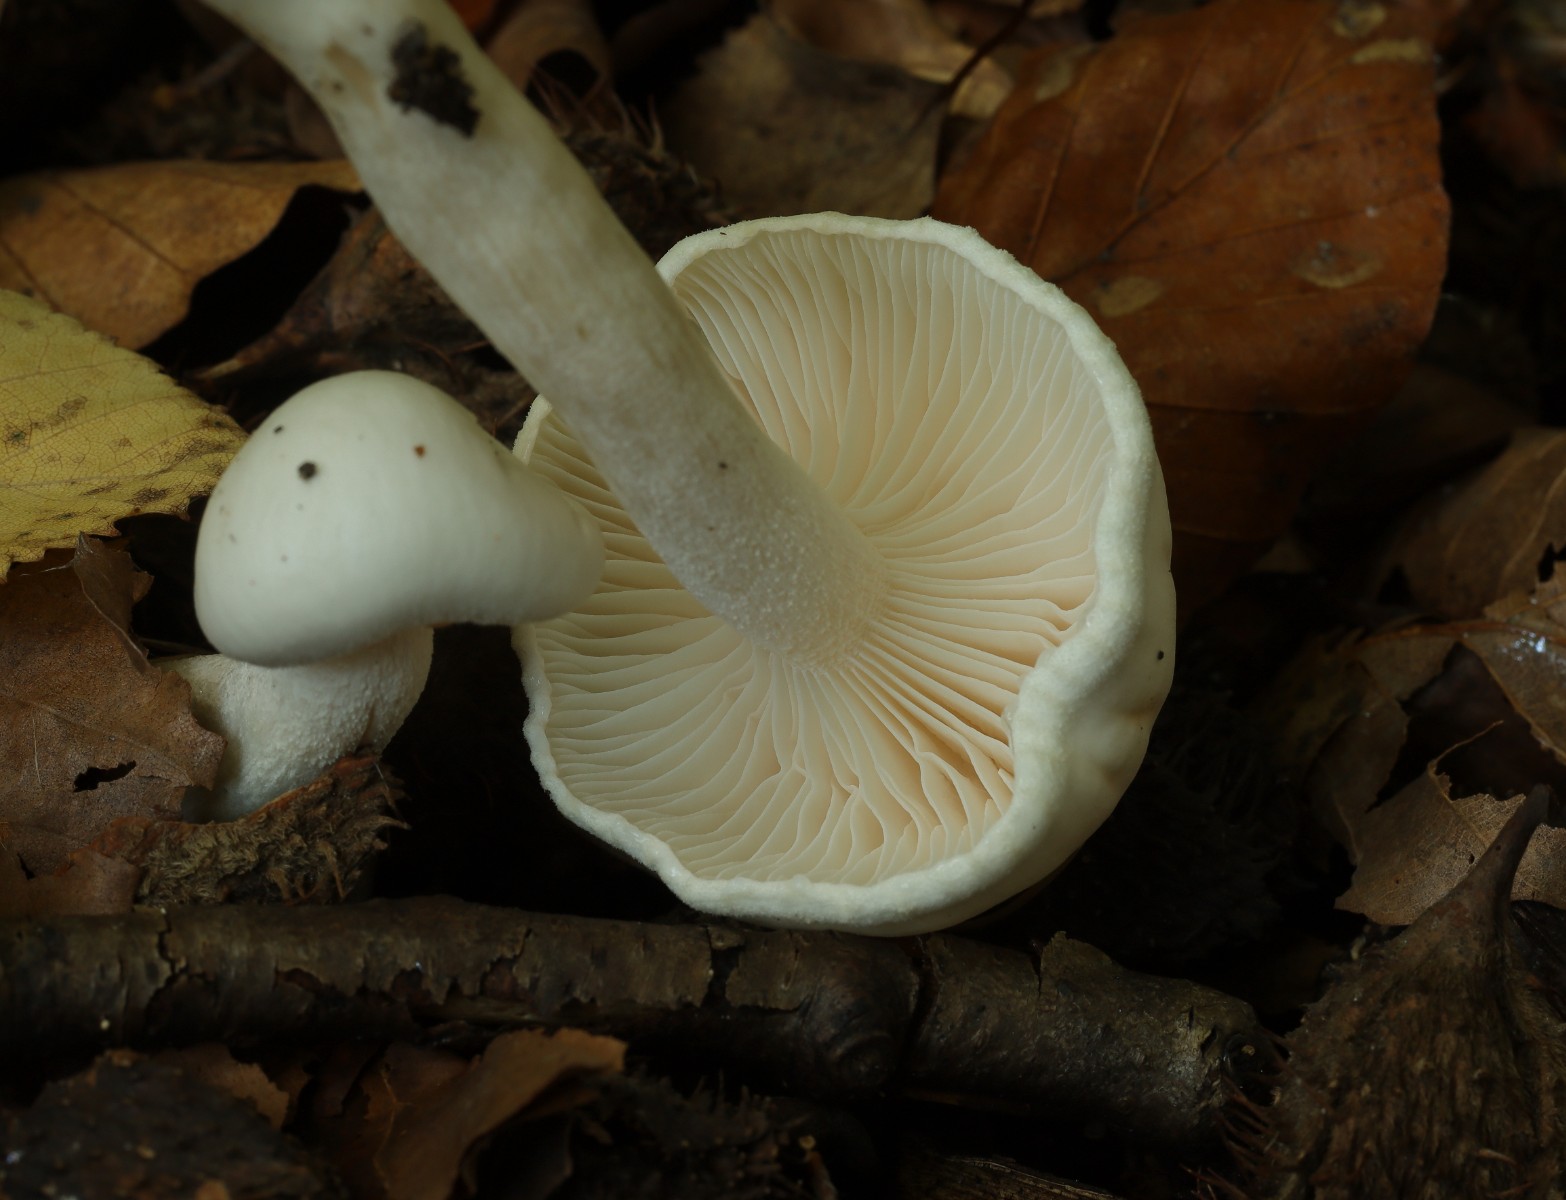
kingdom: Fungi
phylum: Basidiomycota
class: Agaricomycetes
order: Agaricales
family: Hygrophoraceae
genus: Hygrophorus
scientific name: Hygrophorus
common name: sneglehat
